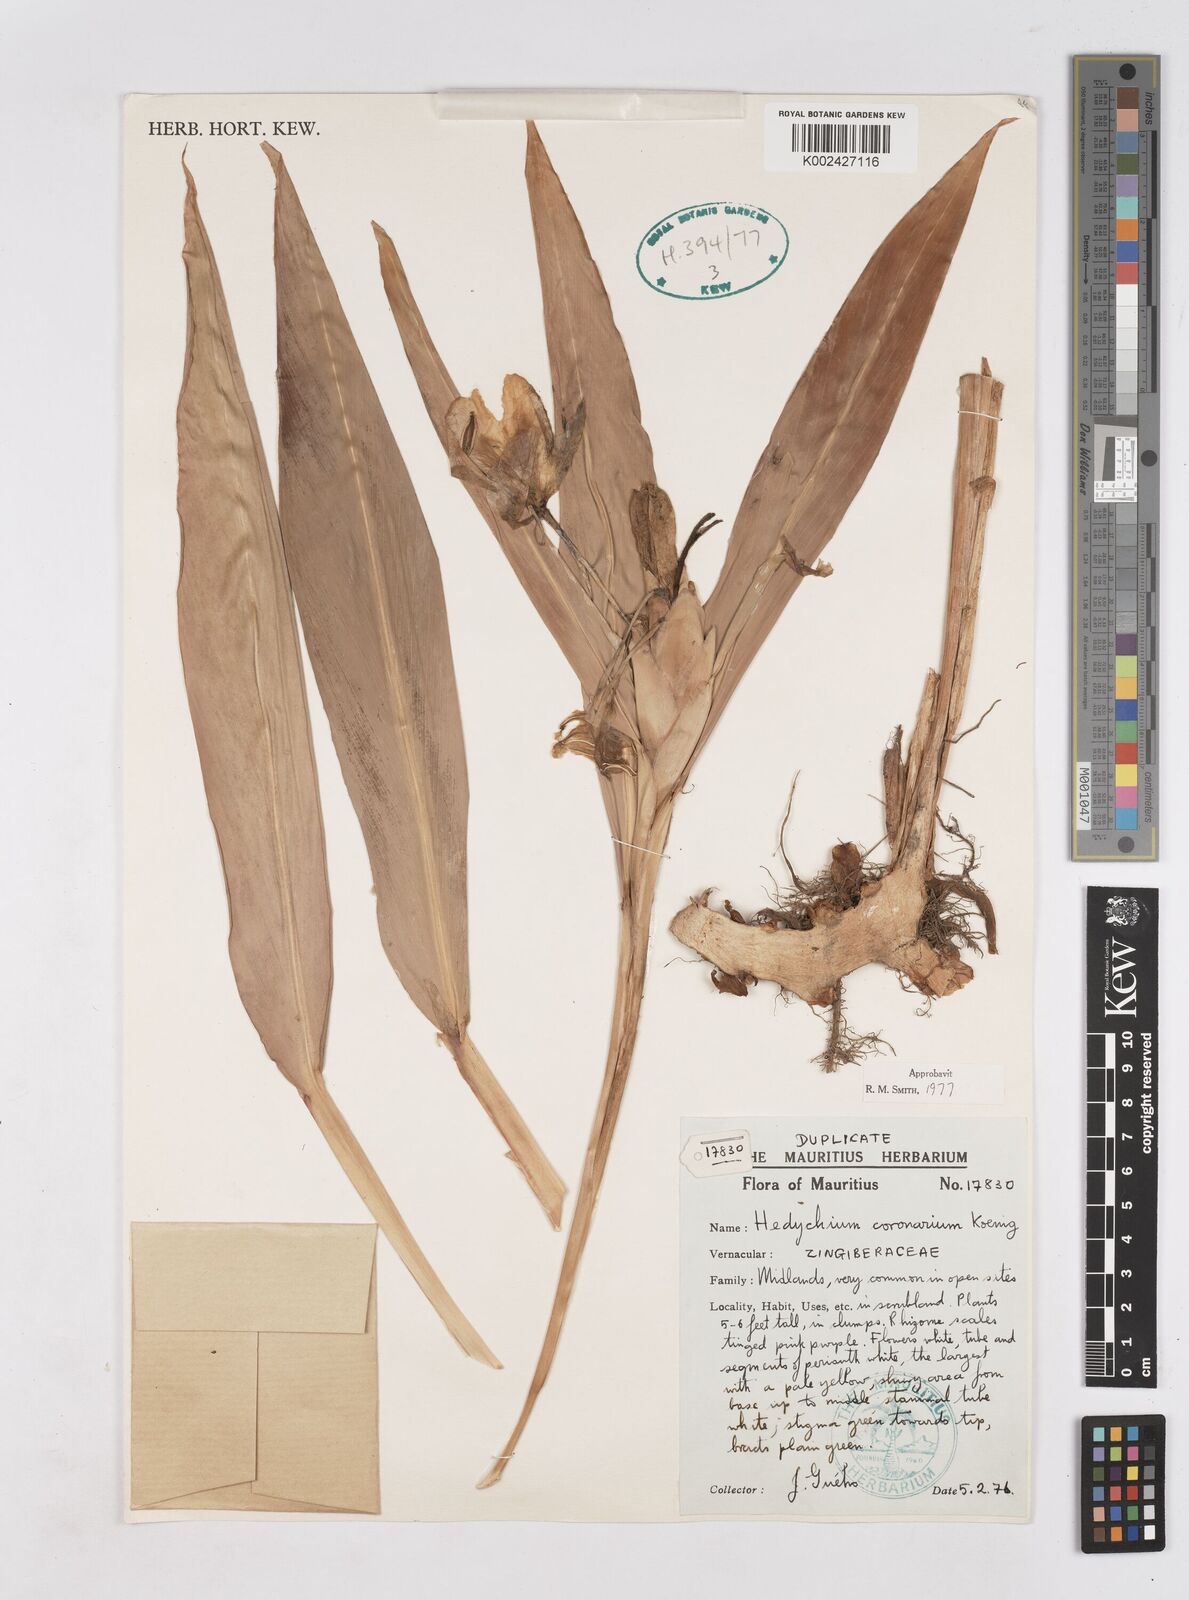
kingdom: Plantae
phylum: Tracheophyta
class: Liliopsida
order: Zingiberales
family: Zingiberaceae
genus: Hedychium
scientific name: Hedychium coronarium
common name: White garland-lily
